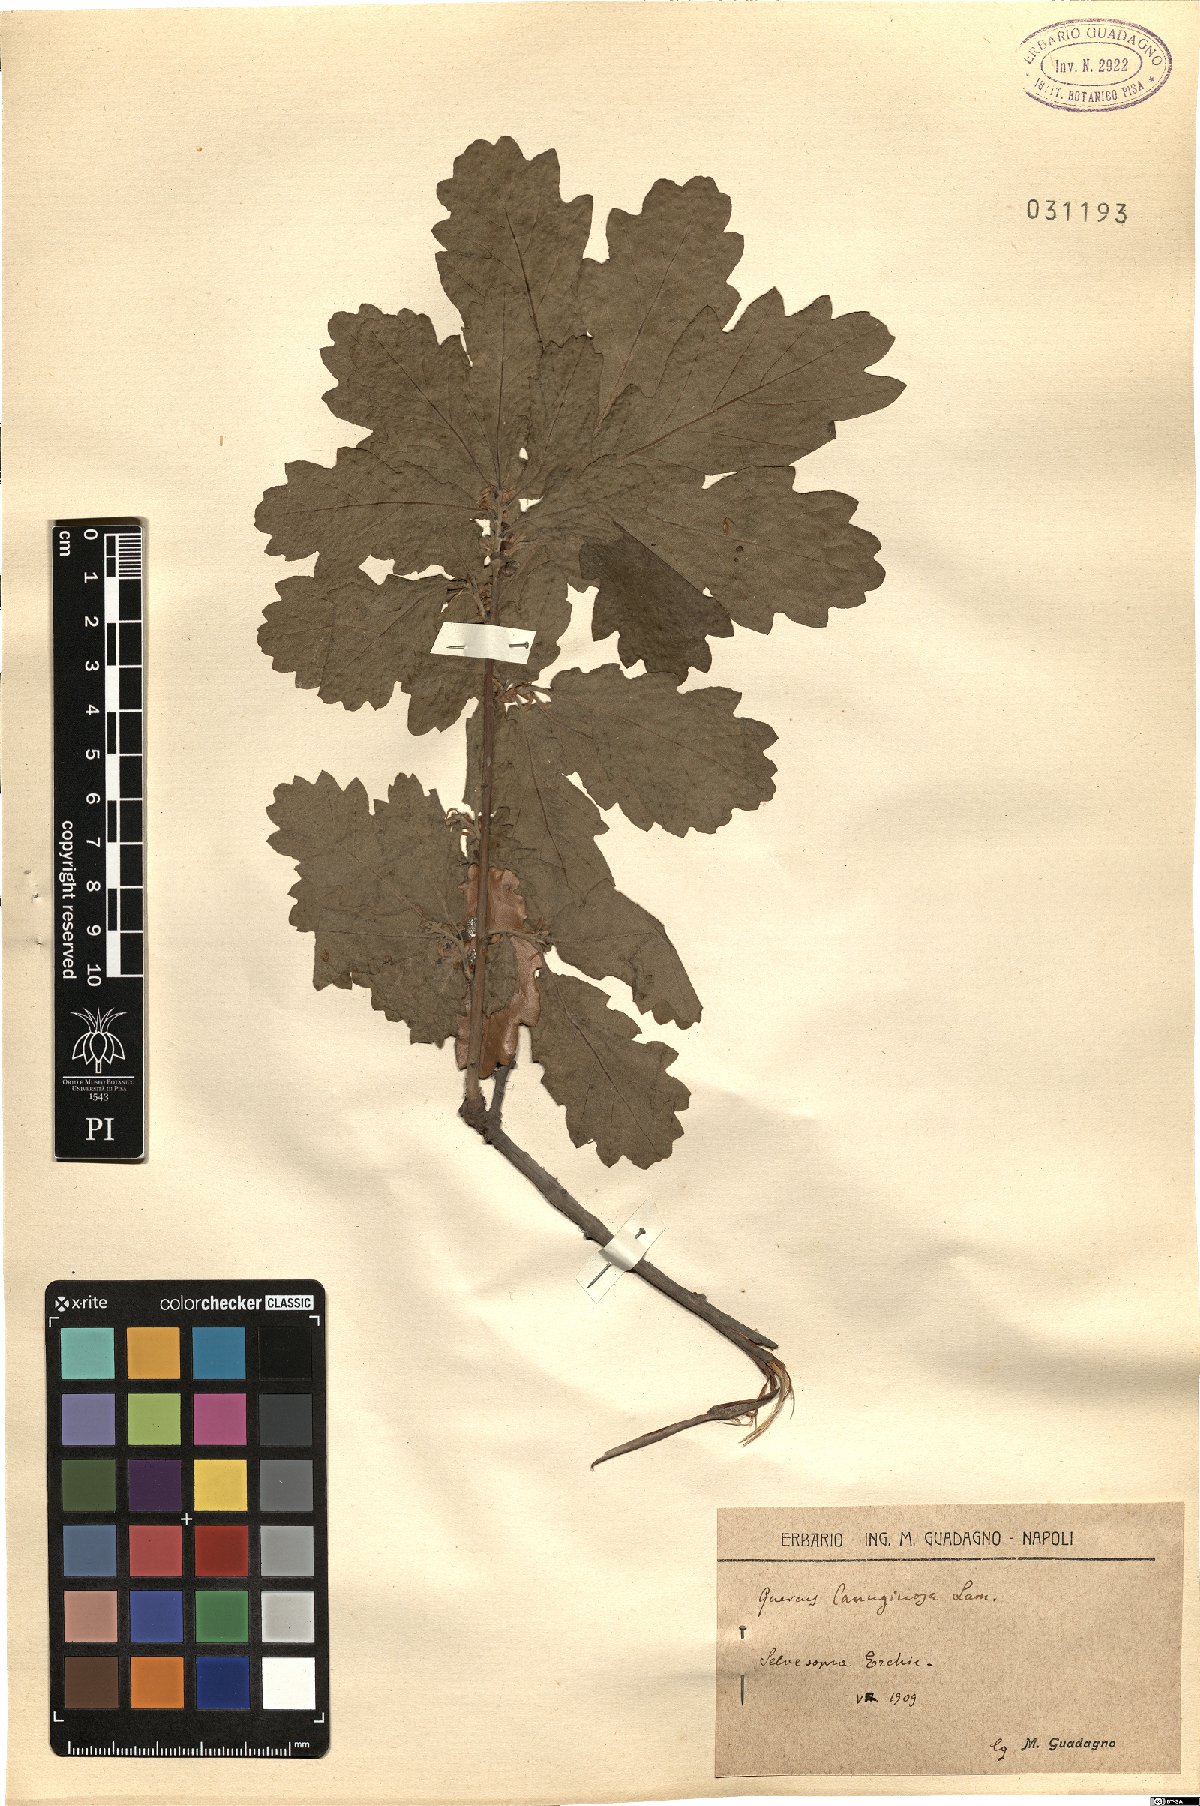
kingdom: Plantae
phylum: Tracheophyta
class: Magnoliopsida
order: Fagales
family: Fagaceae
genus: Quercus
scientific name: Quercus cerris
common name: Turkey oak
